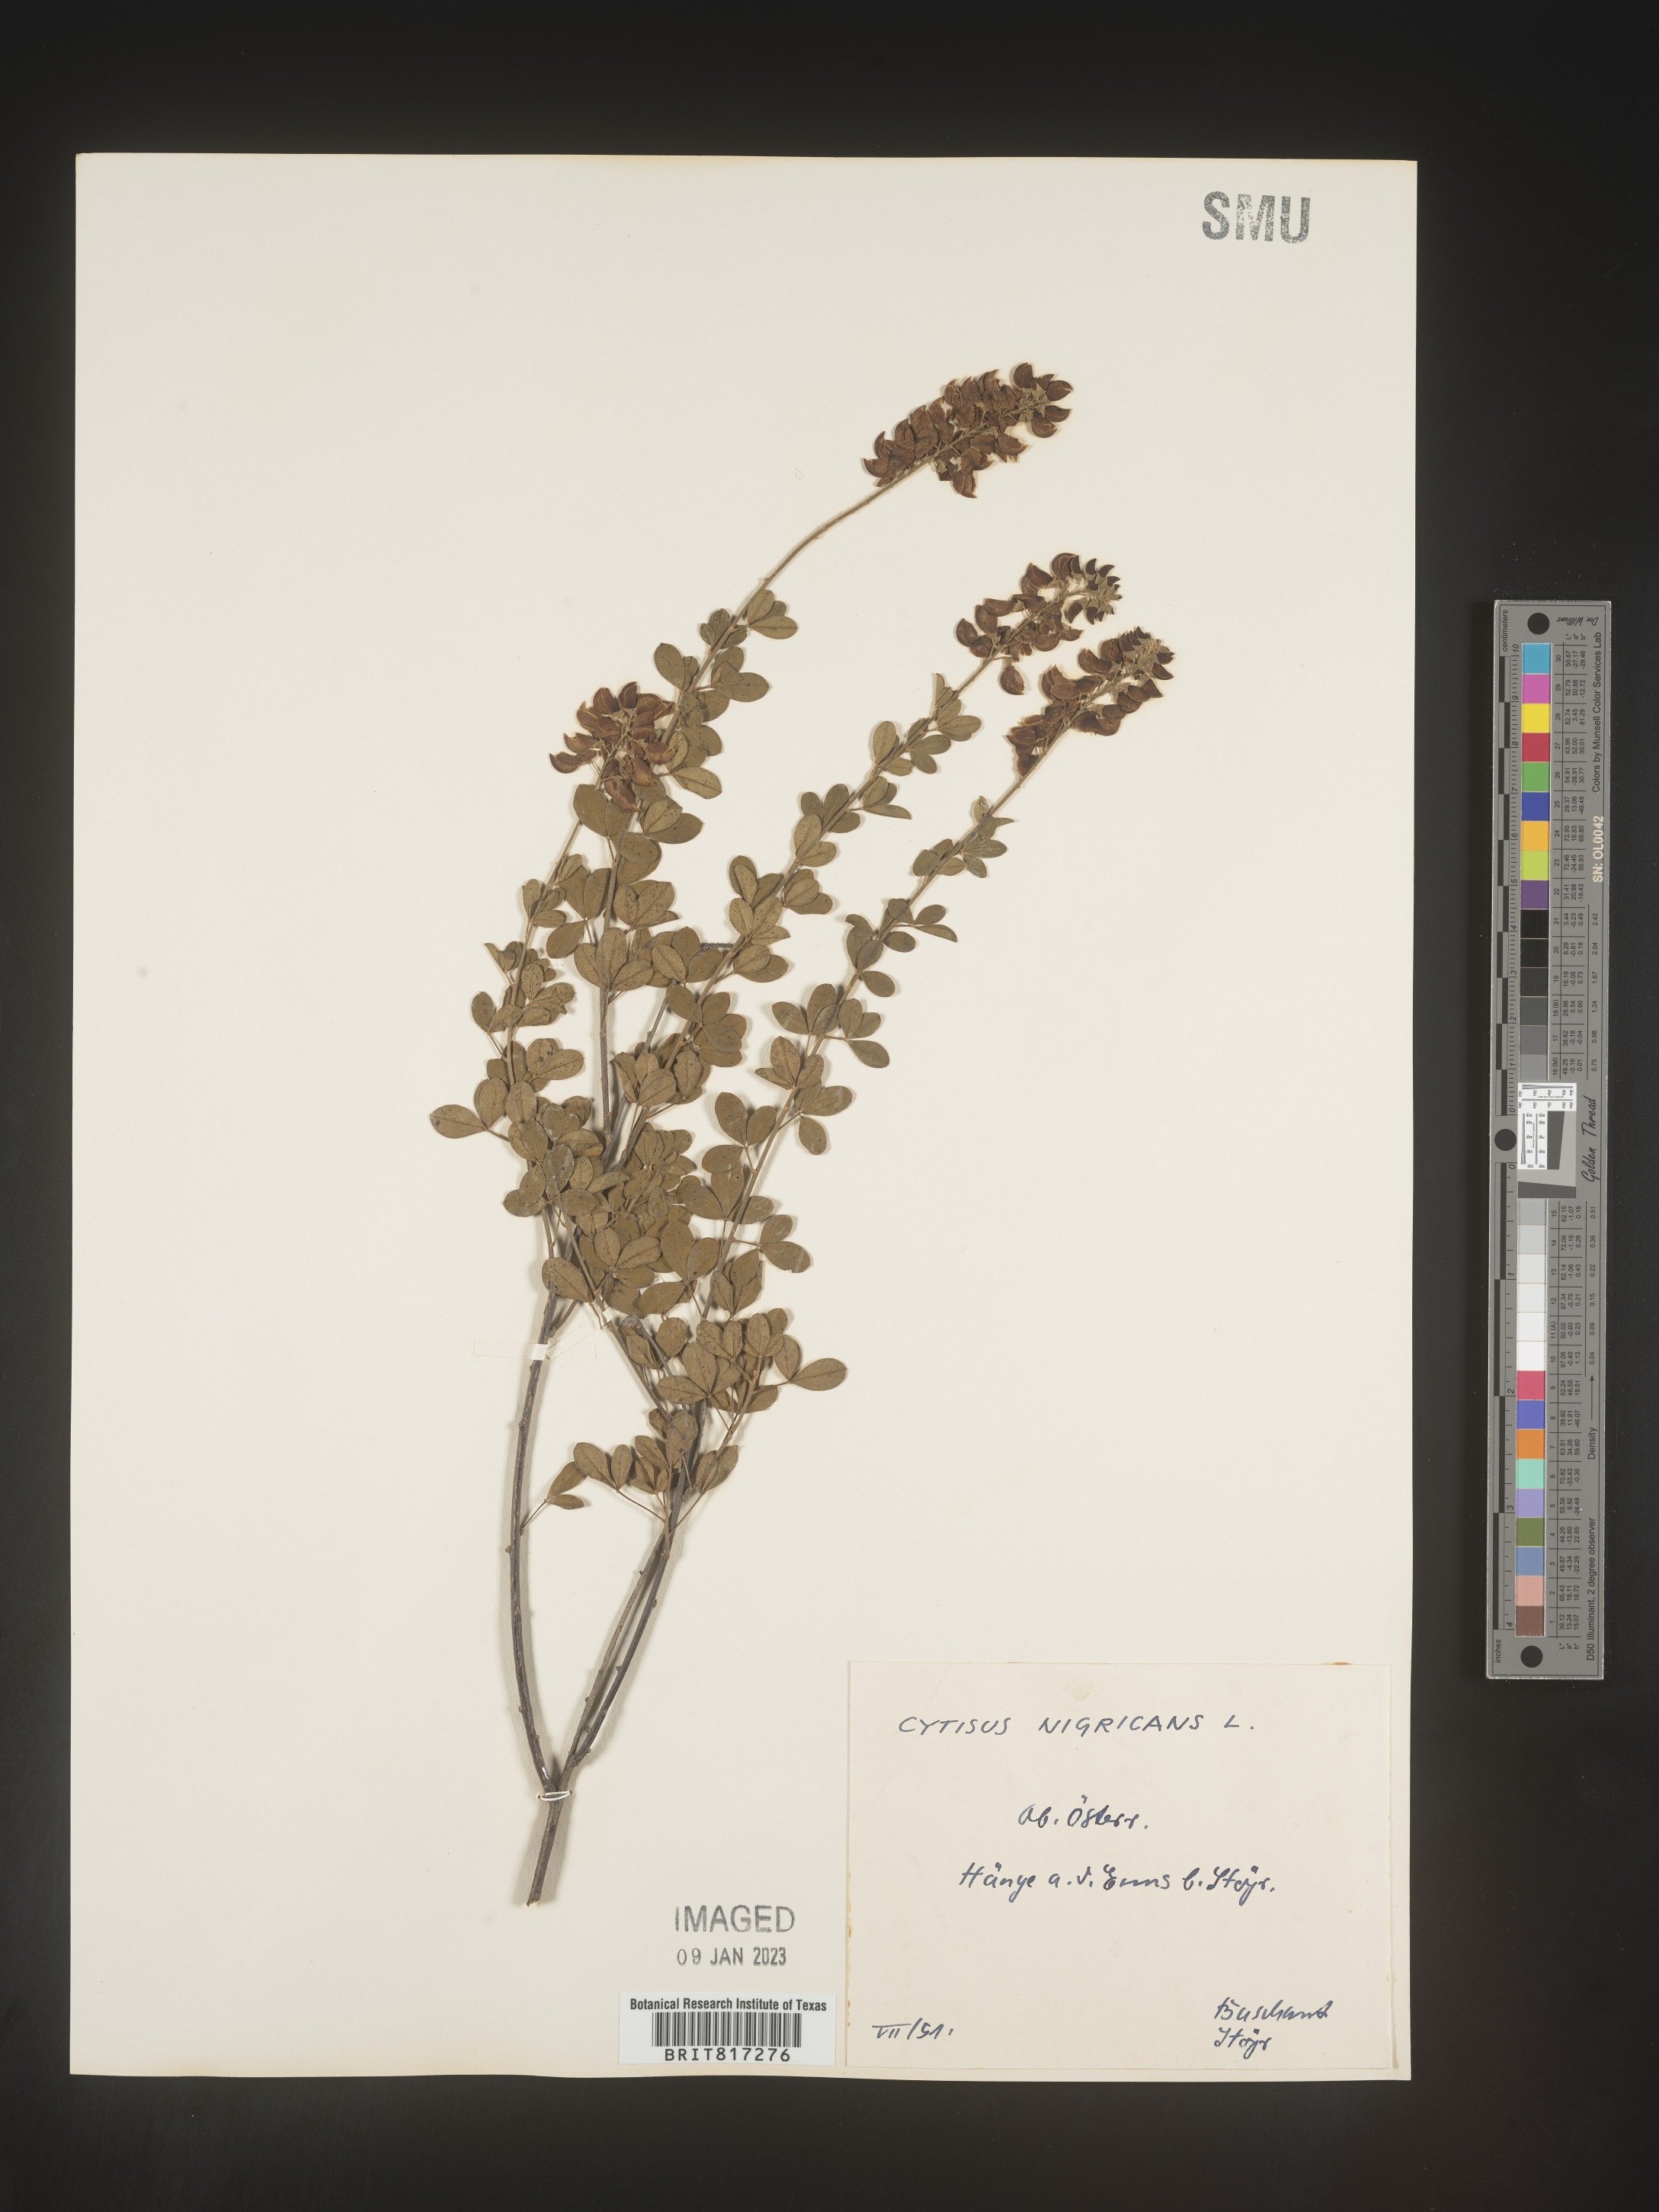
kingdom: Plantae
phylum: Tracheophyta
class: Magnoliopsida
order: Fabales
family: Fabaceae
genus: Cytisus
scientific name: Cytisus
